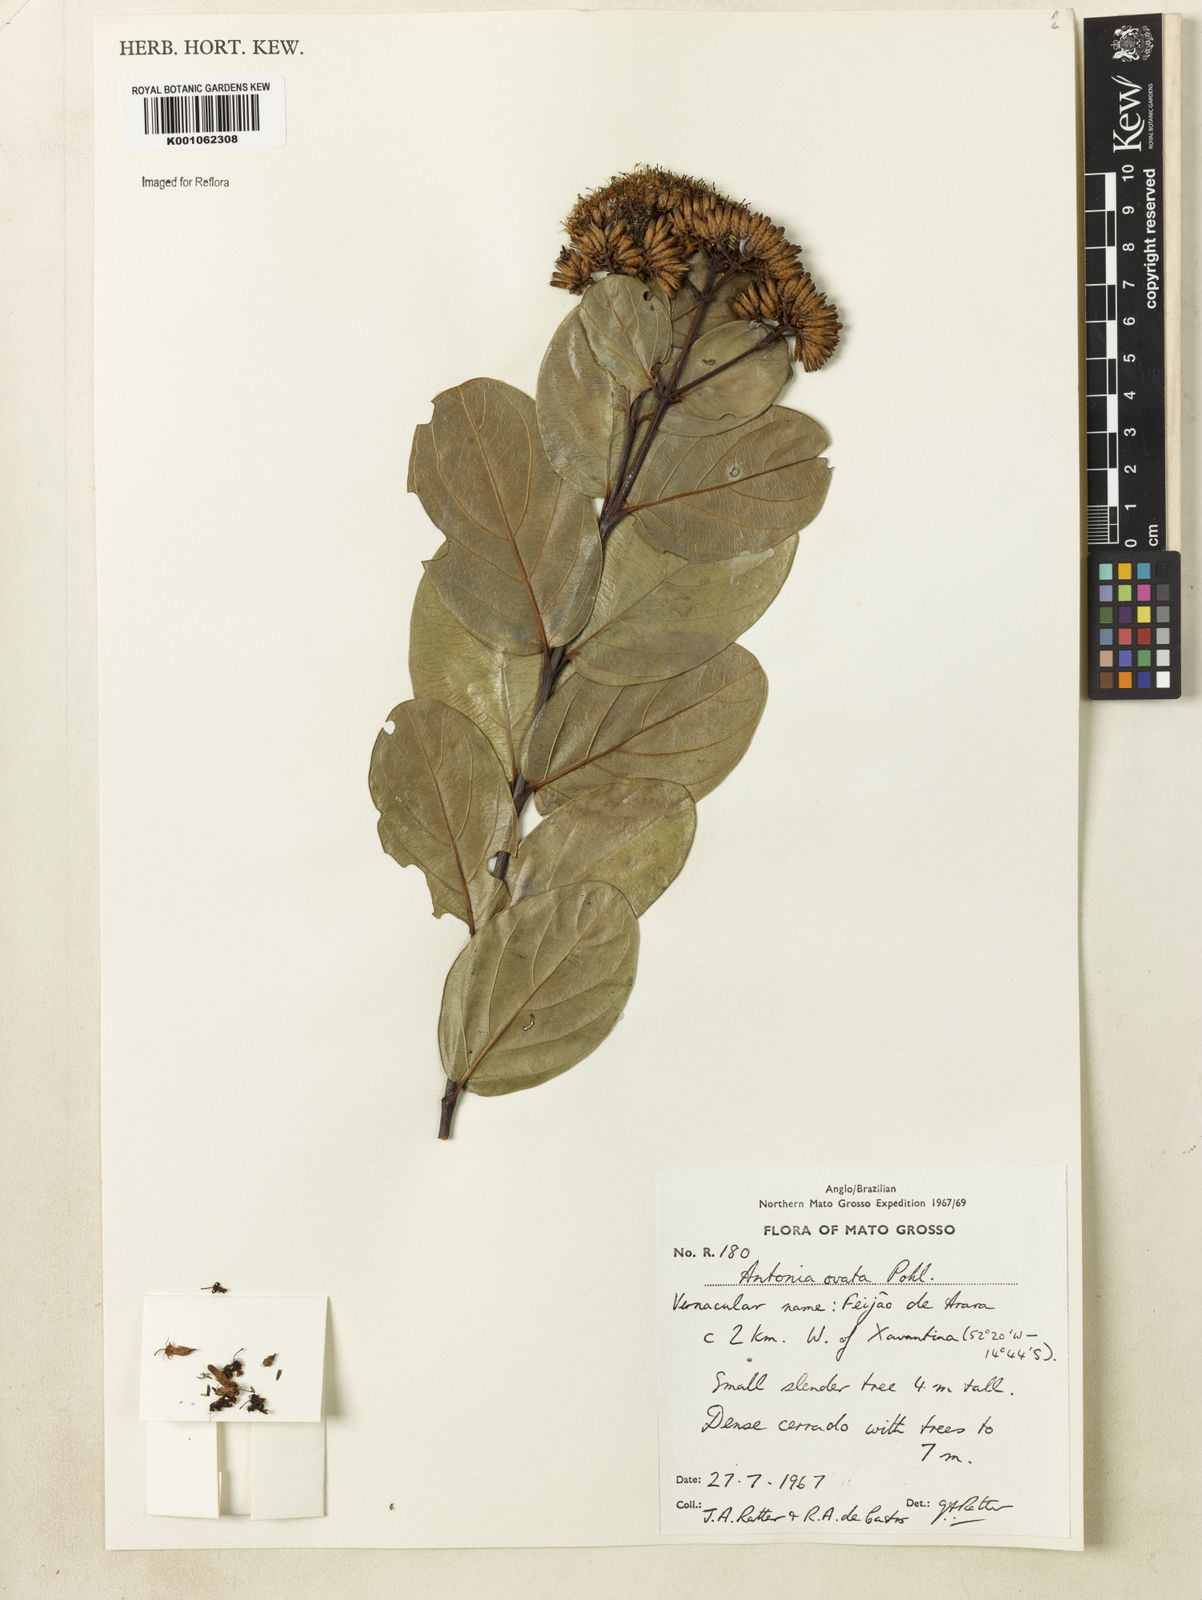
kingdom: Plantae
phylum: Tracheophyta
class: Magnoliopsida
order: Gentianales
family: Loganiaceae
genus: Antonia
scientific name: Antonia ovata
